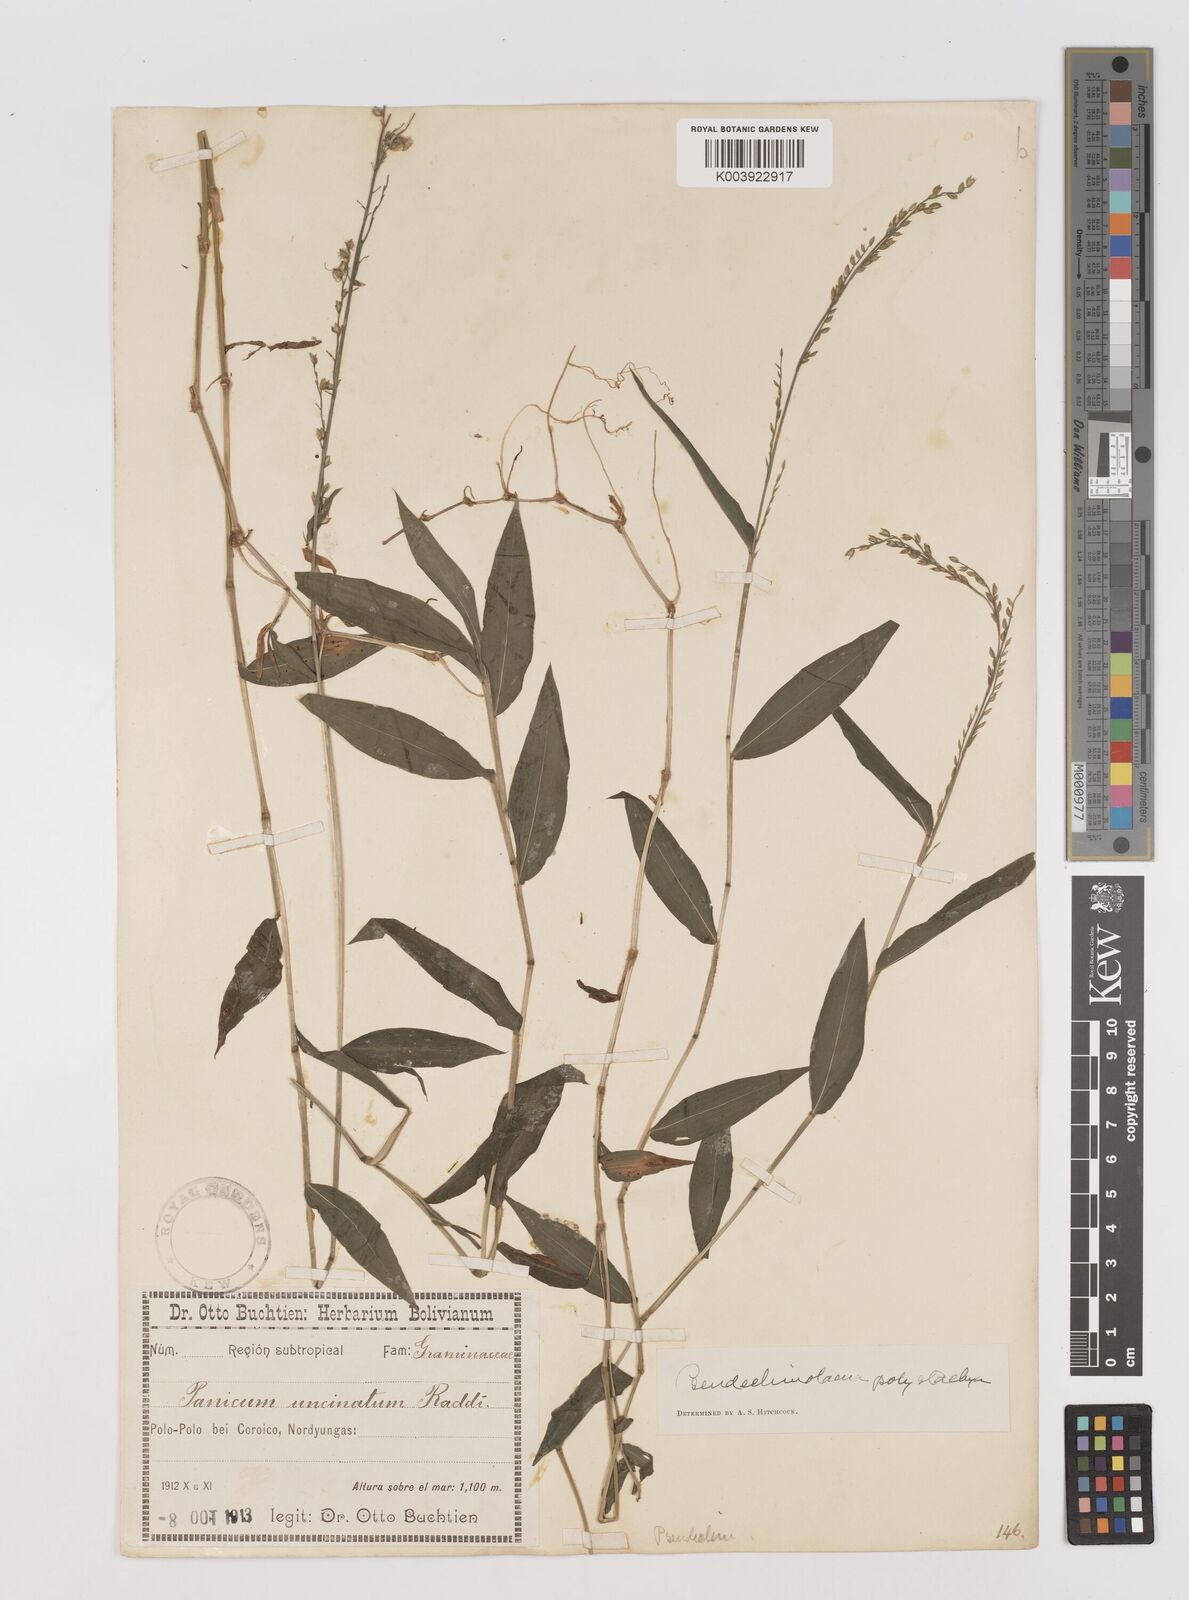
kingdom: Plantae
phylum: Tracheophyta
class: Liliopsida
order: Poales
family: Poaceae
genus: Pseudechinolaena
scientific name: Pseudechinolaena polystachya
